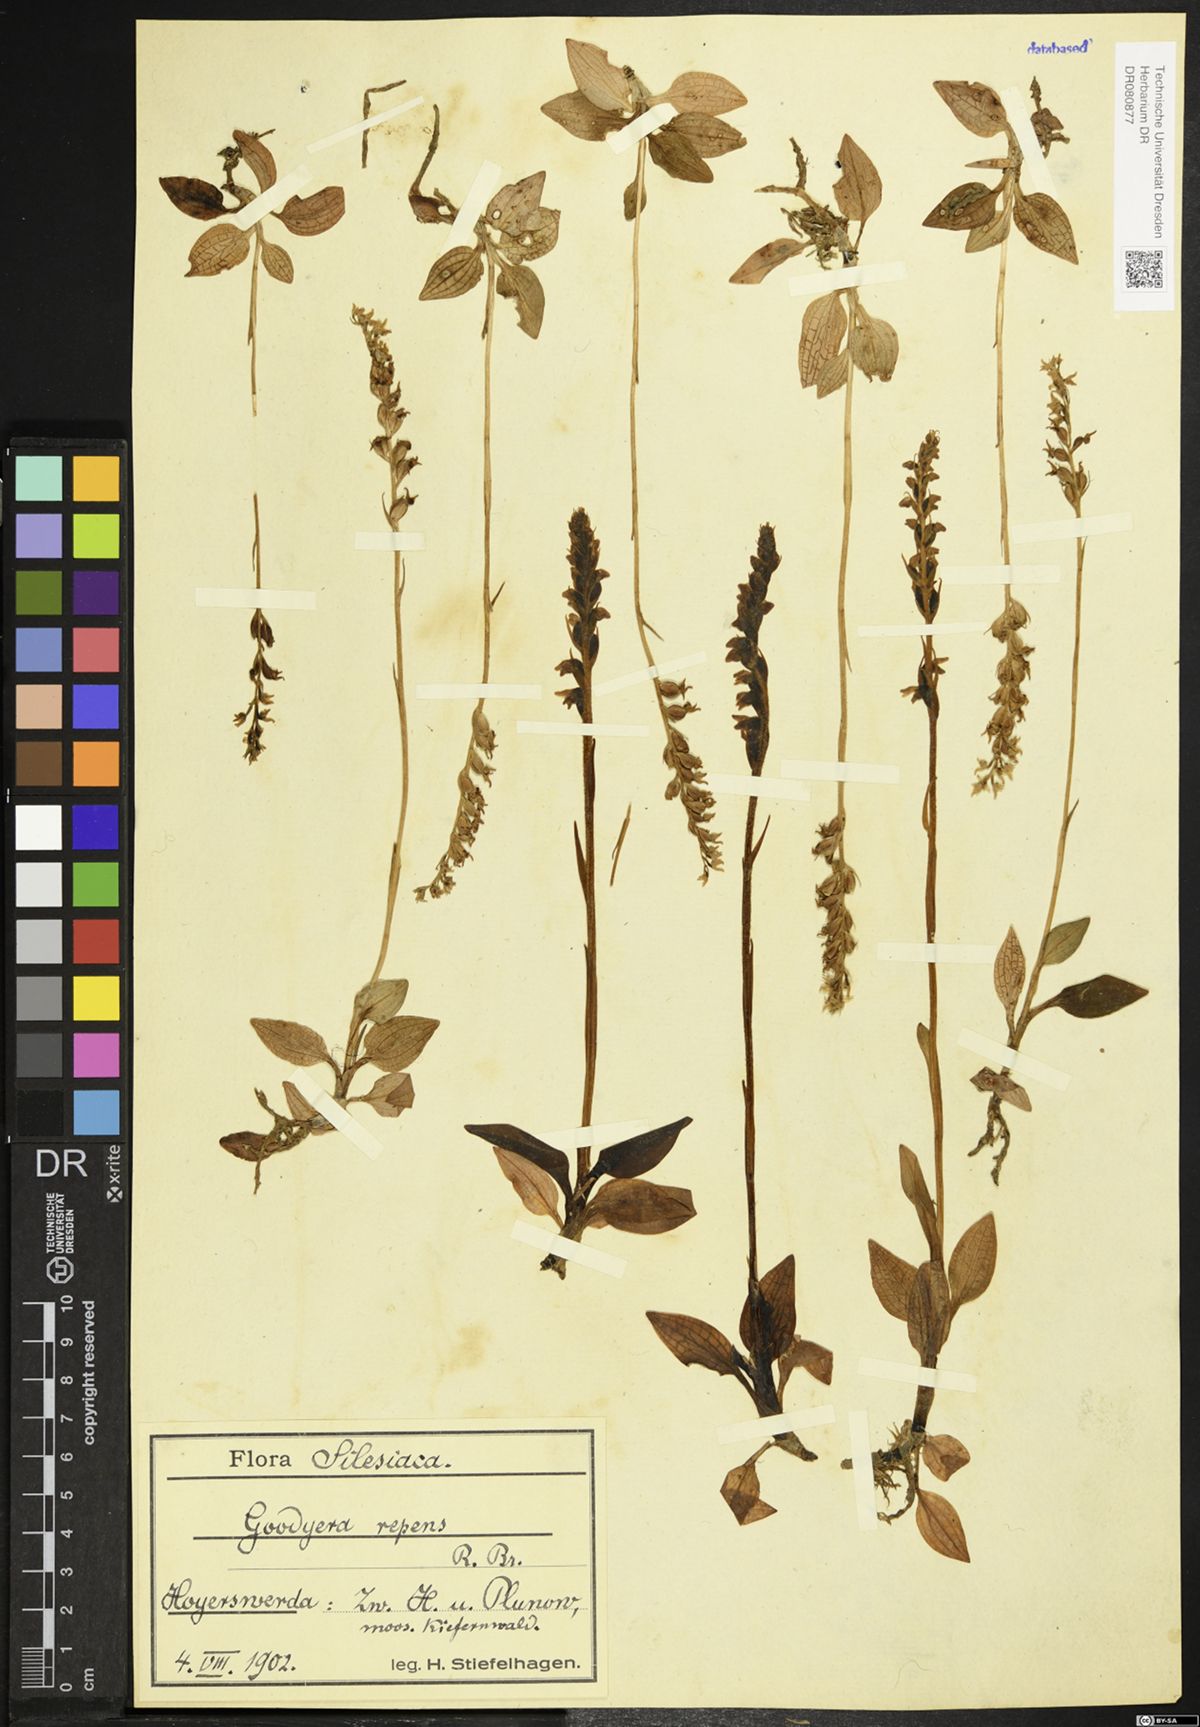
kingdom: Plantae
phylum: Tracheophyta
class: Liliopsida
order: Asparagales
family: Orchidaceae
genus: Goodyera
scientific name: Goodyera repens
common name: Creeping lady's-tresses
